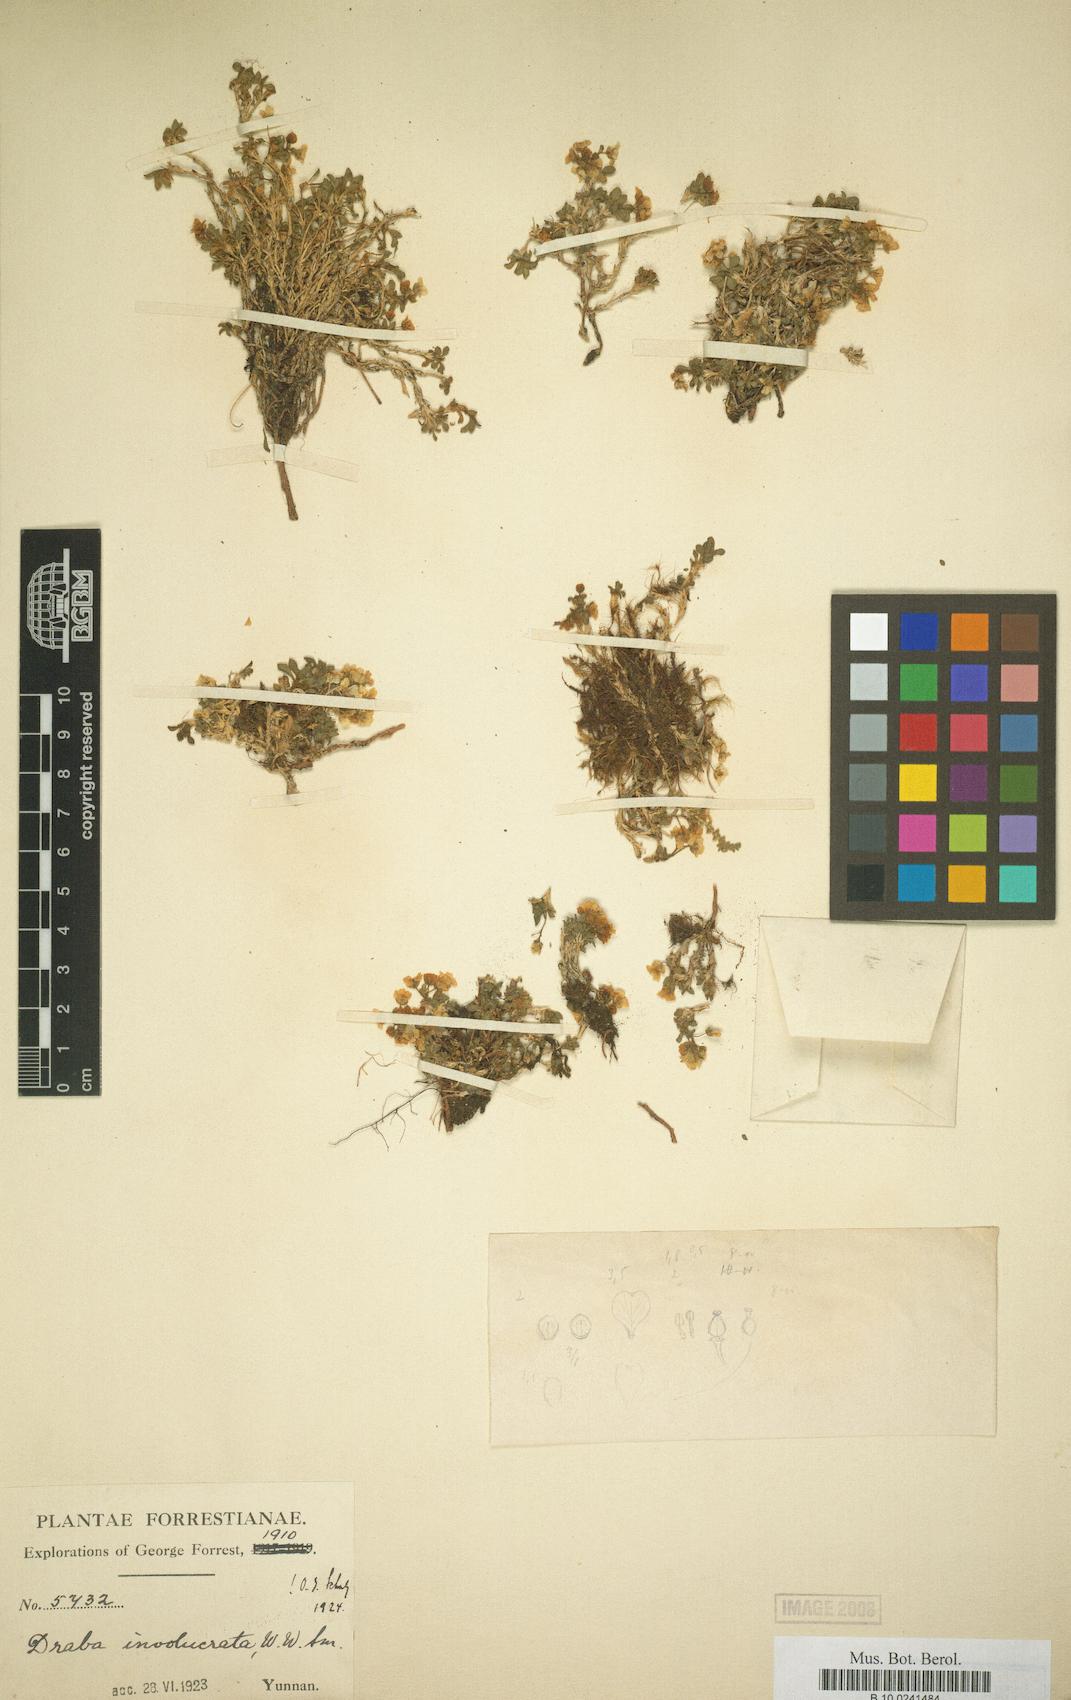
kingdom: Plantae
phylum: Tracheophyta
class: Magnoliopsida
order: Brassicales
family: Brassicaceae
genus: Draba
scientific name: Draba involucrata
